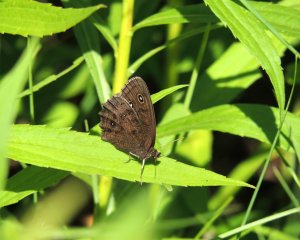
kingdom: Animalia
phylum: Arthropoda
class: Insecta
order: Lepidoptera
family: Nymphalidae
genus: Cercyonis
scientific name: Cercyonis pegala
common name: Common Wood-Nymph
